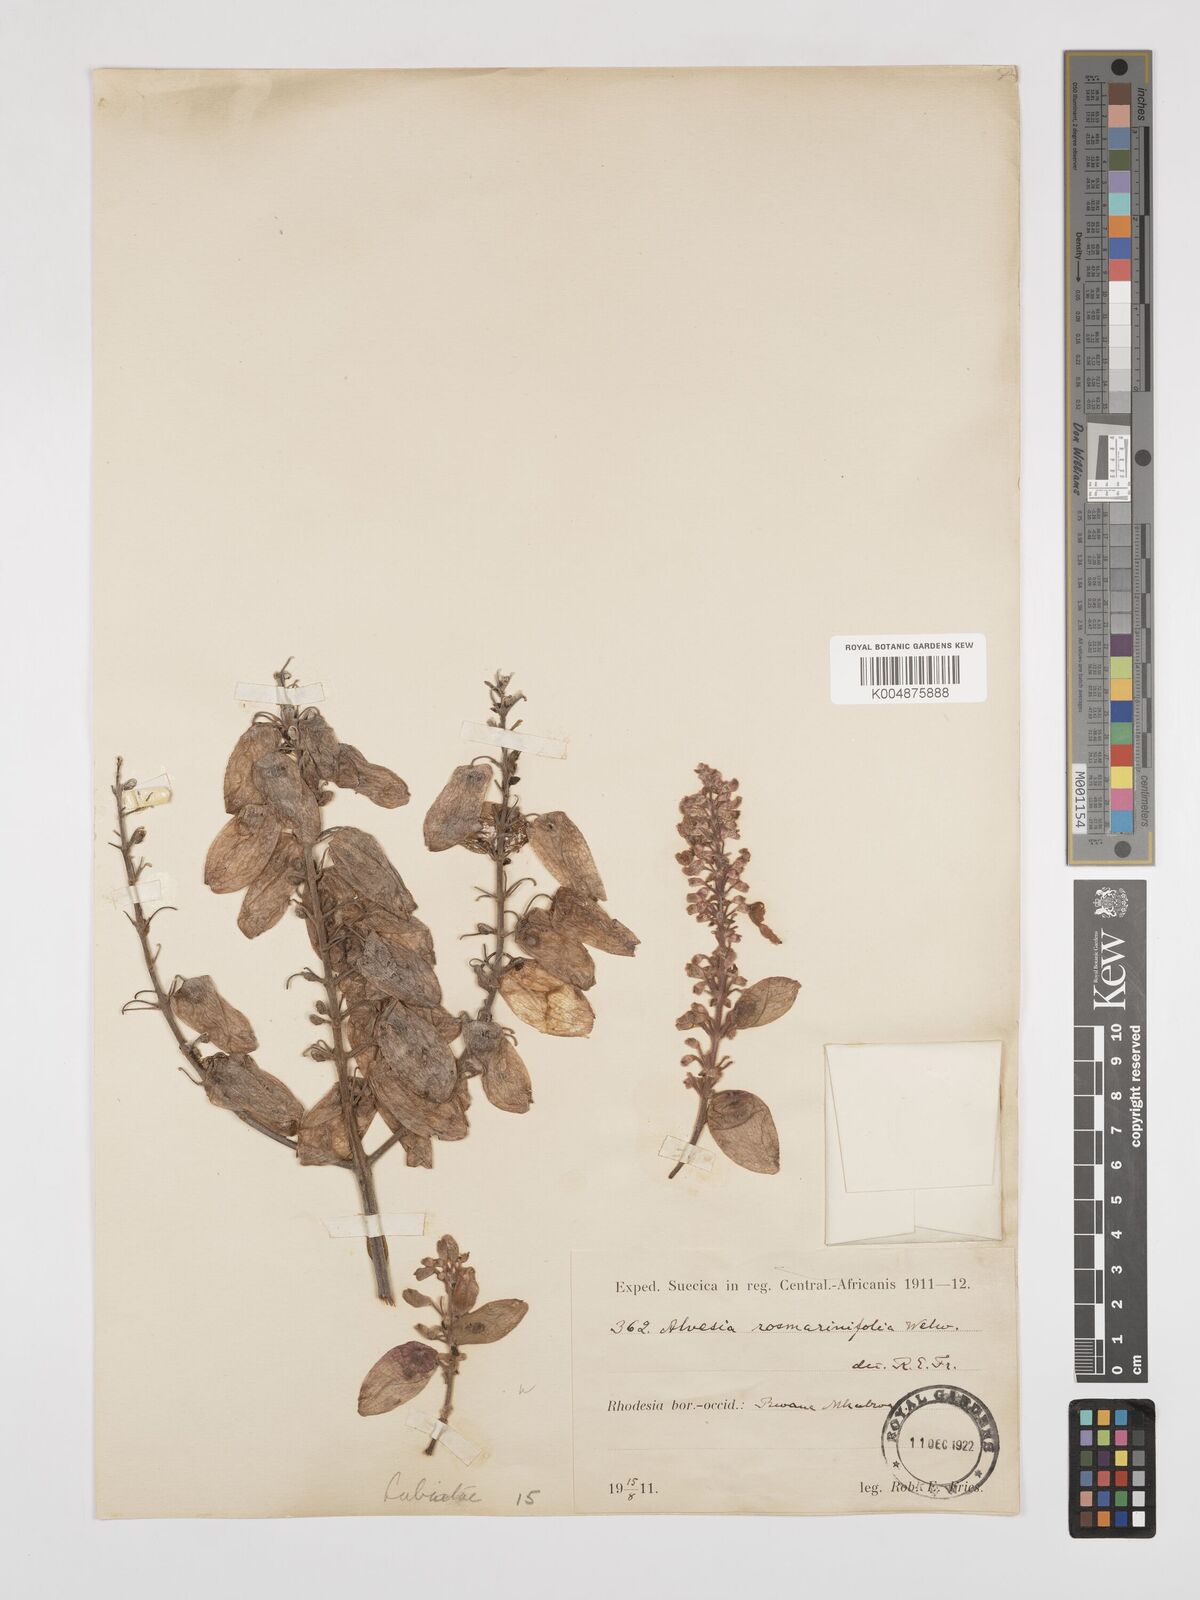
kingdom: Plantae
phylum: Tracheophyta
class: Magnoliopsida
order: Lamiales
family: Lamiaceae
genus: Alvesia
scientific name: Alvesia rosmarinifolia
